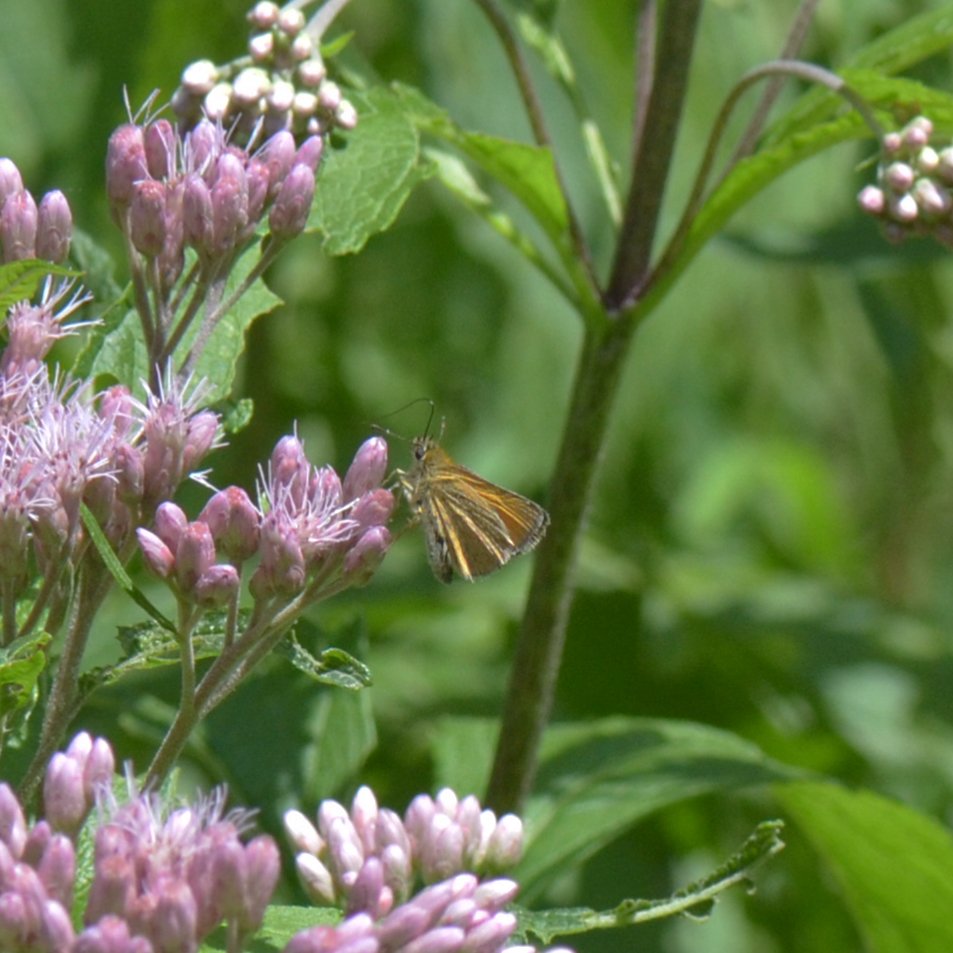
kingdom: Animalia
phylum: Arthropoda
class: Insecta
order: Lepidoptera
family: Hesperiidae
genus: Thymelicus
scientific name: Thymelicus lineola
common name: European Skipper
